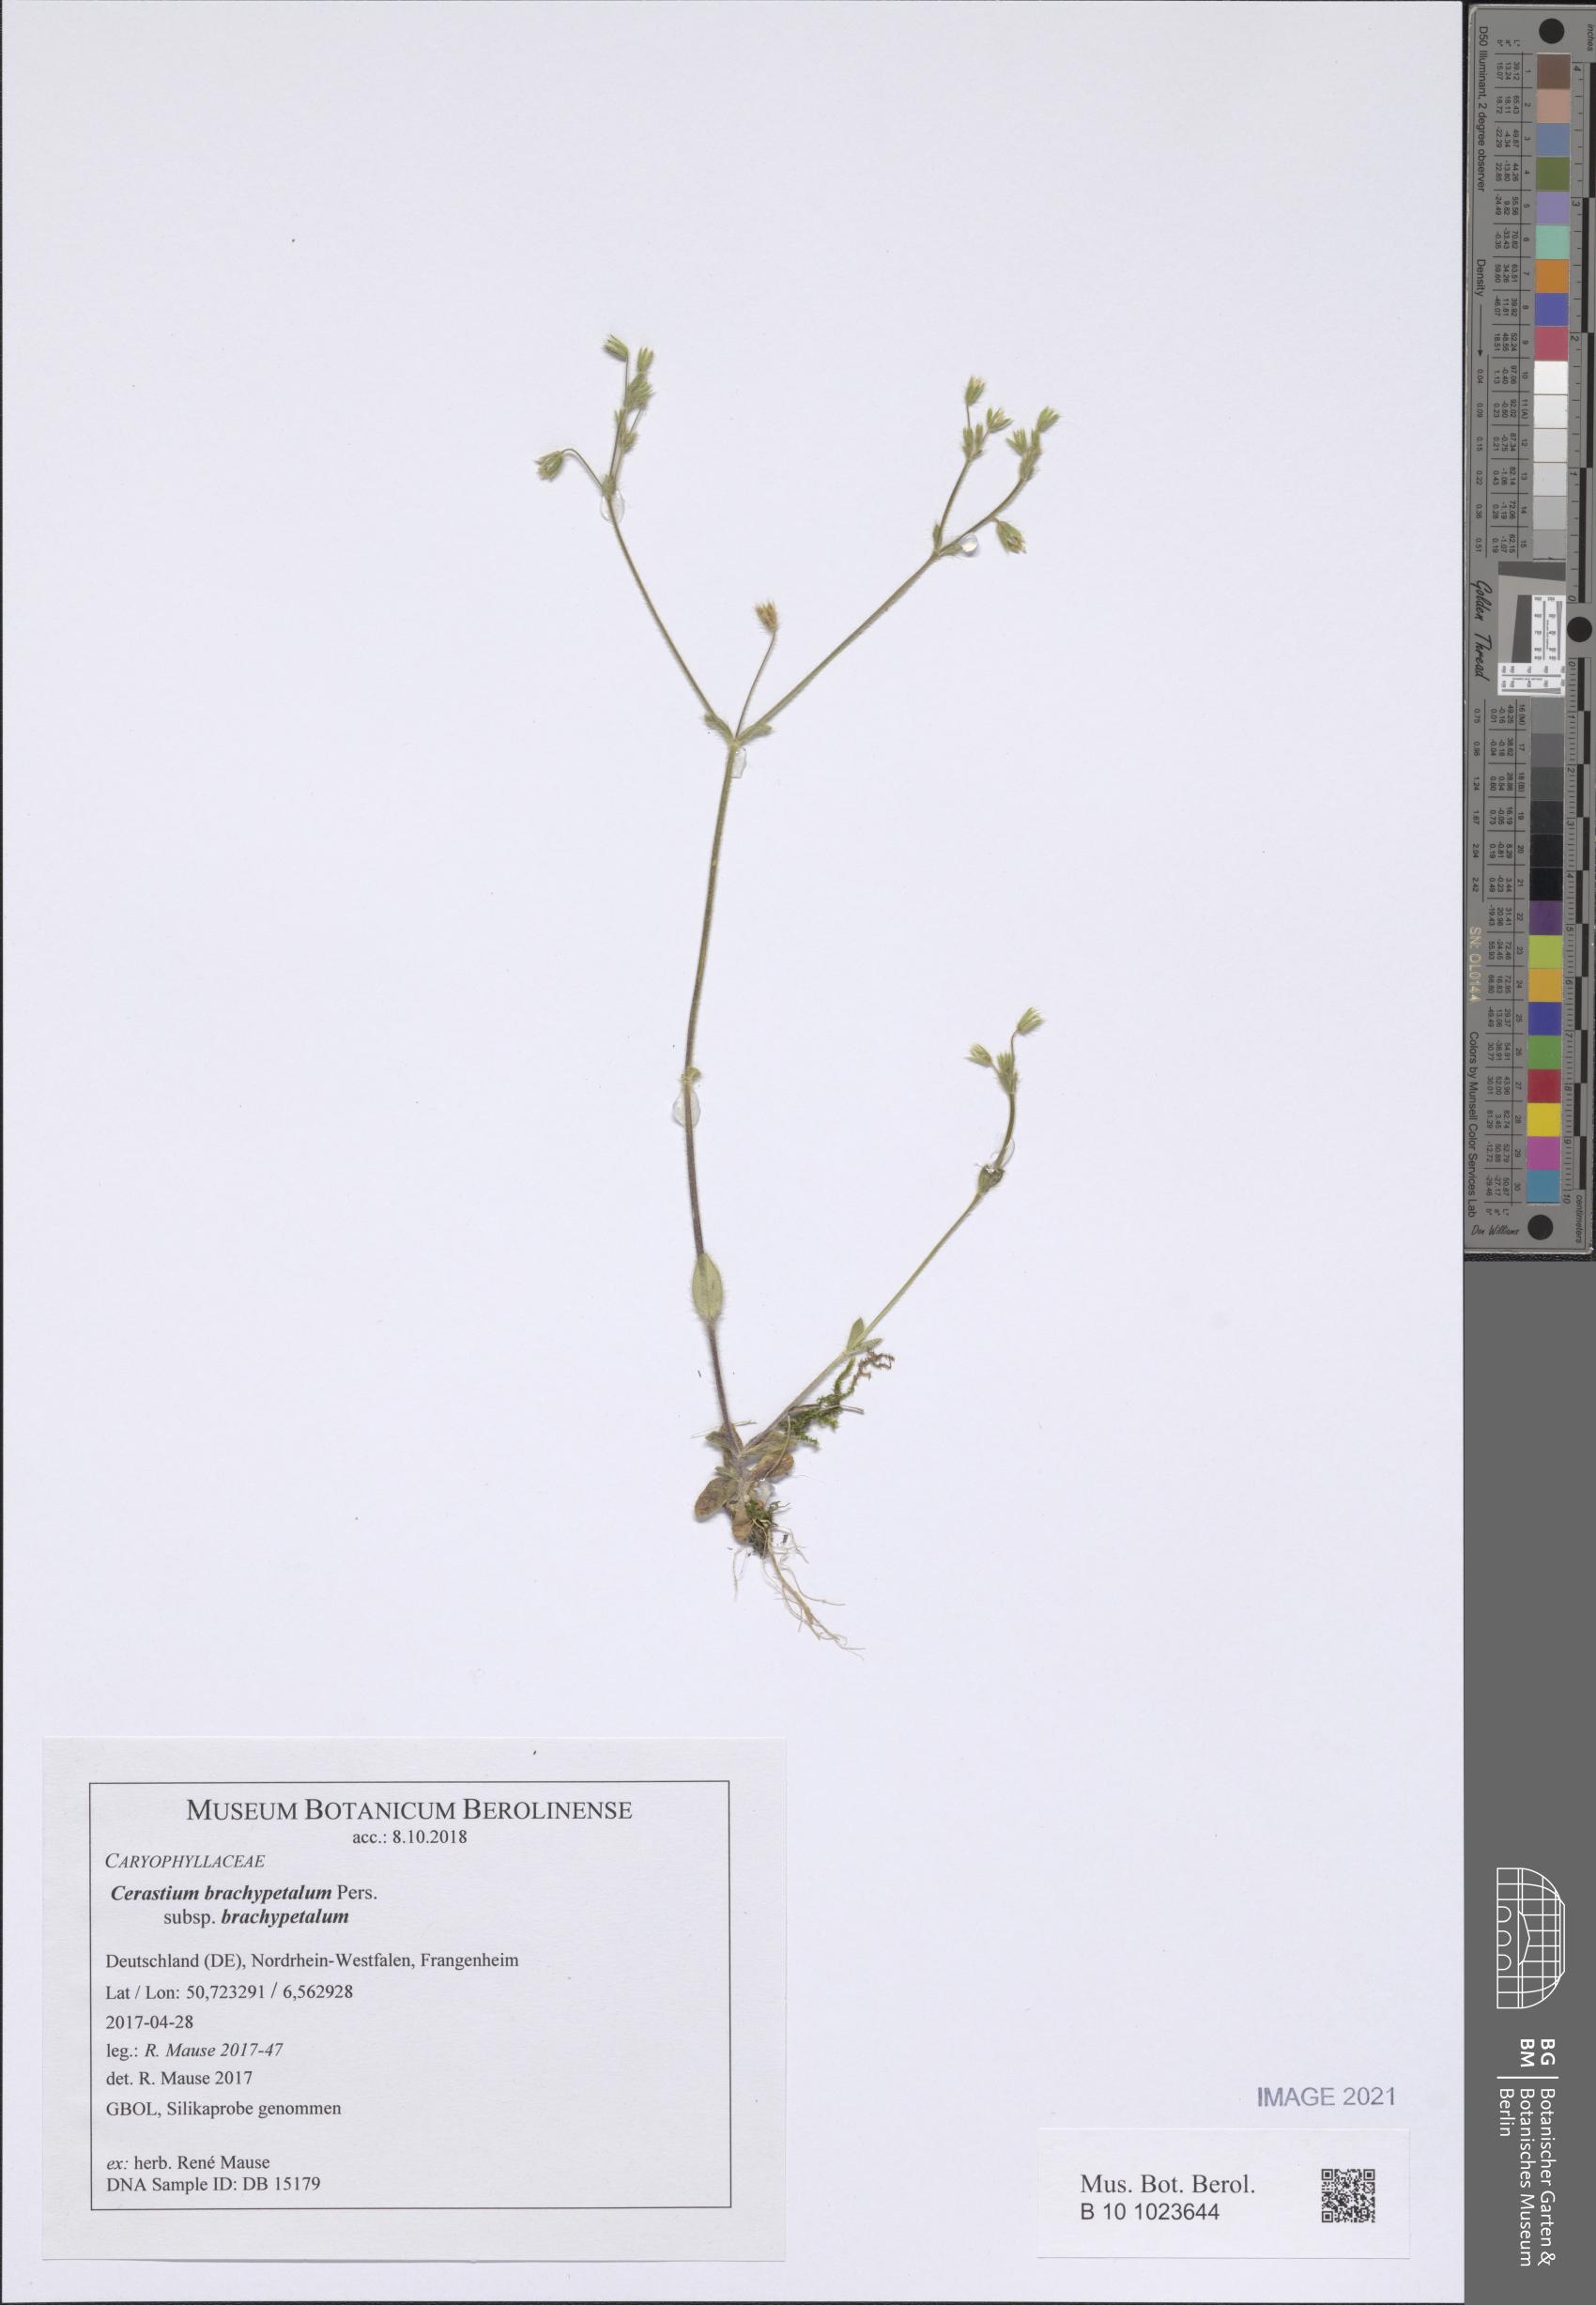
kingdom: Plantae
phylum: Tracheophyta
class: Magnoliopsida
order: Caryophyllales
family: Caryophyllaceae
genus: Cerastium
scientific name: Cerastium brachypetalum
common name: Grey mouse-ear
